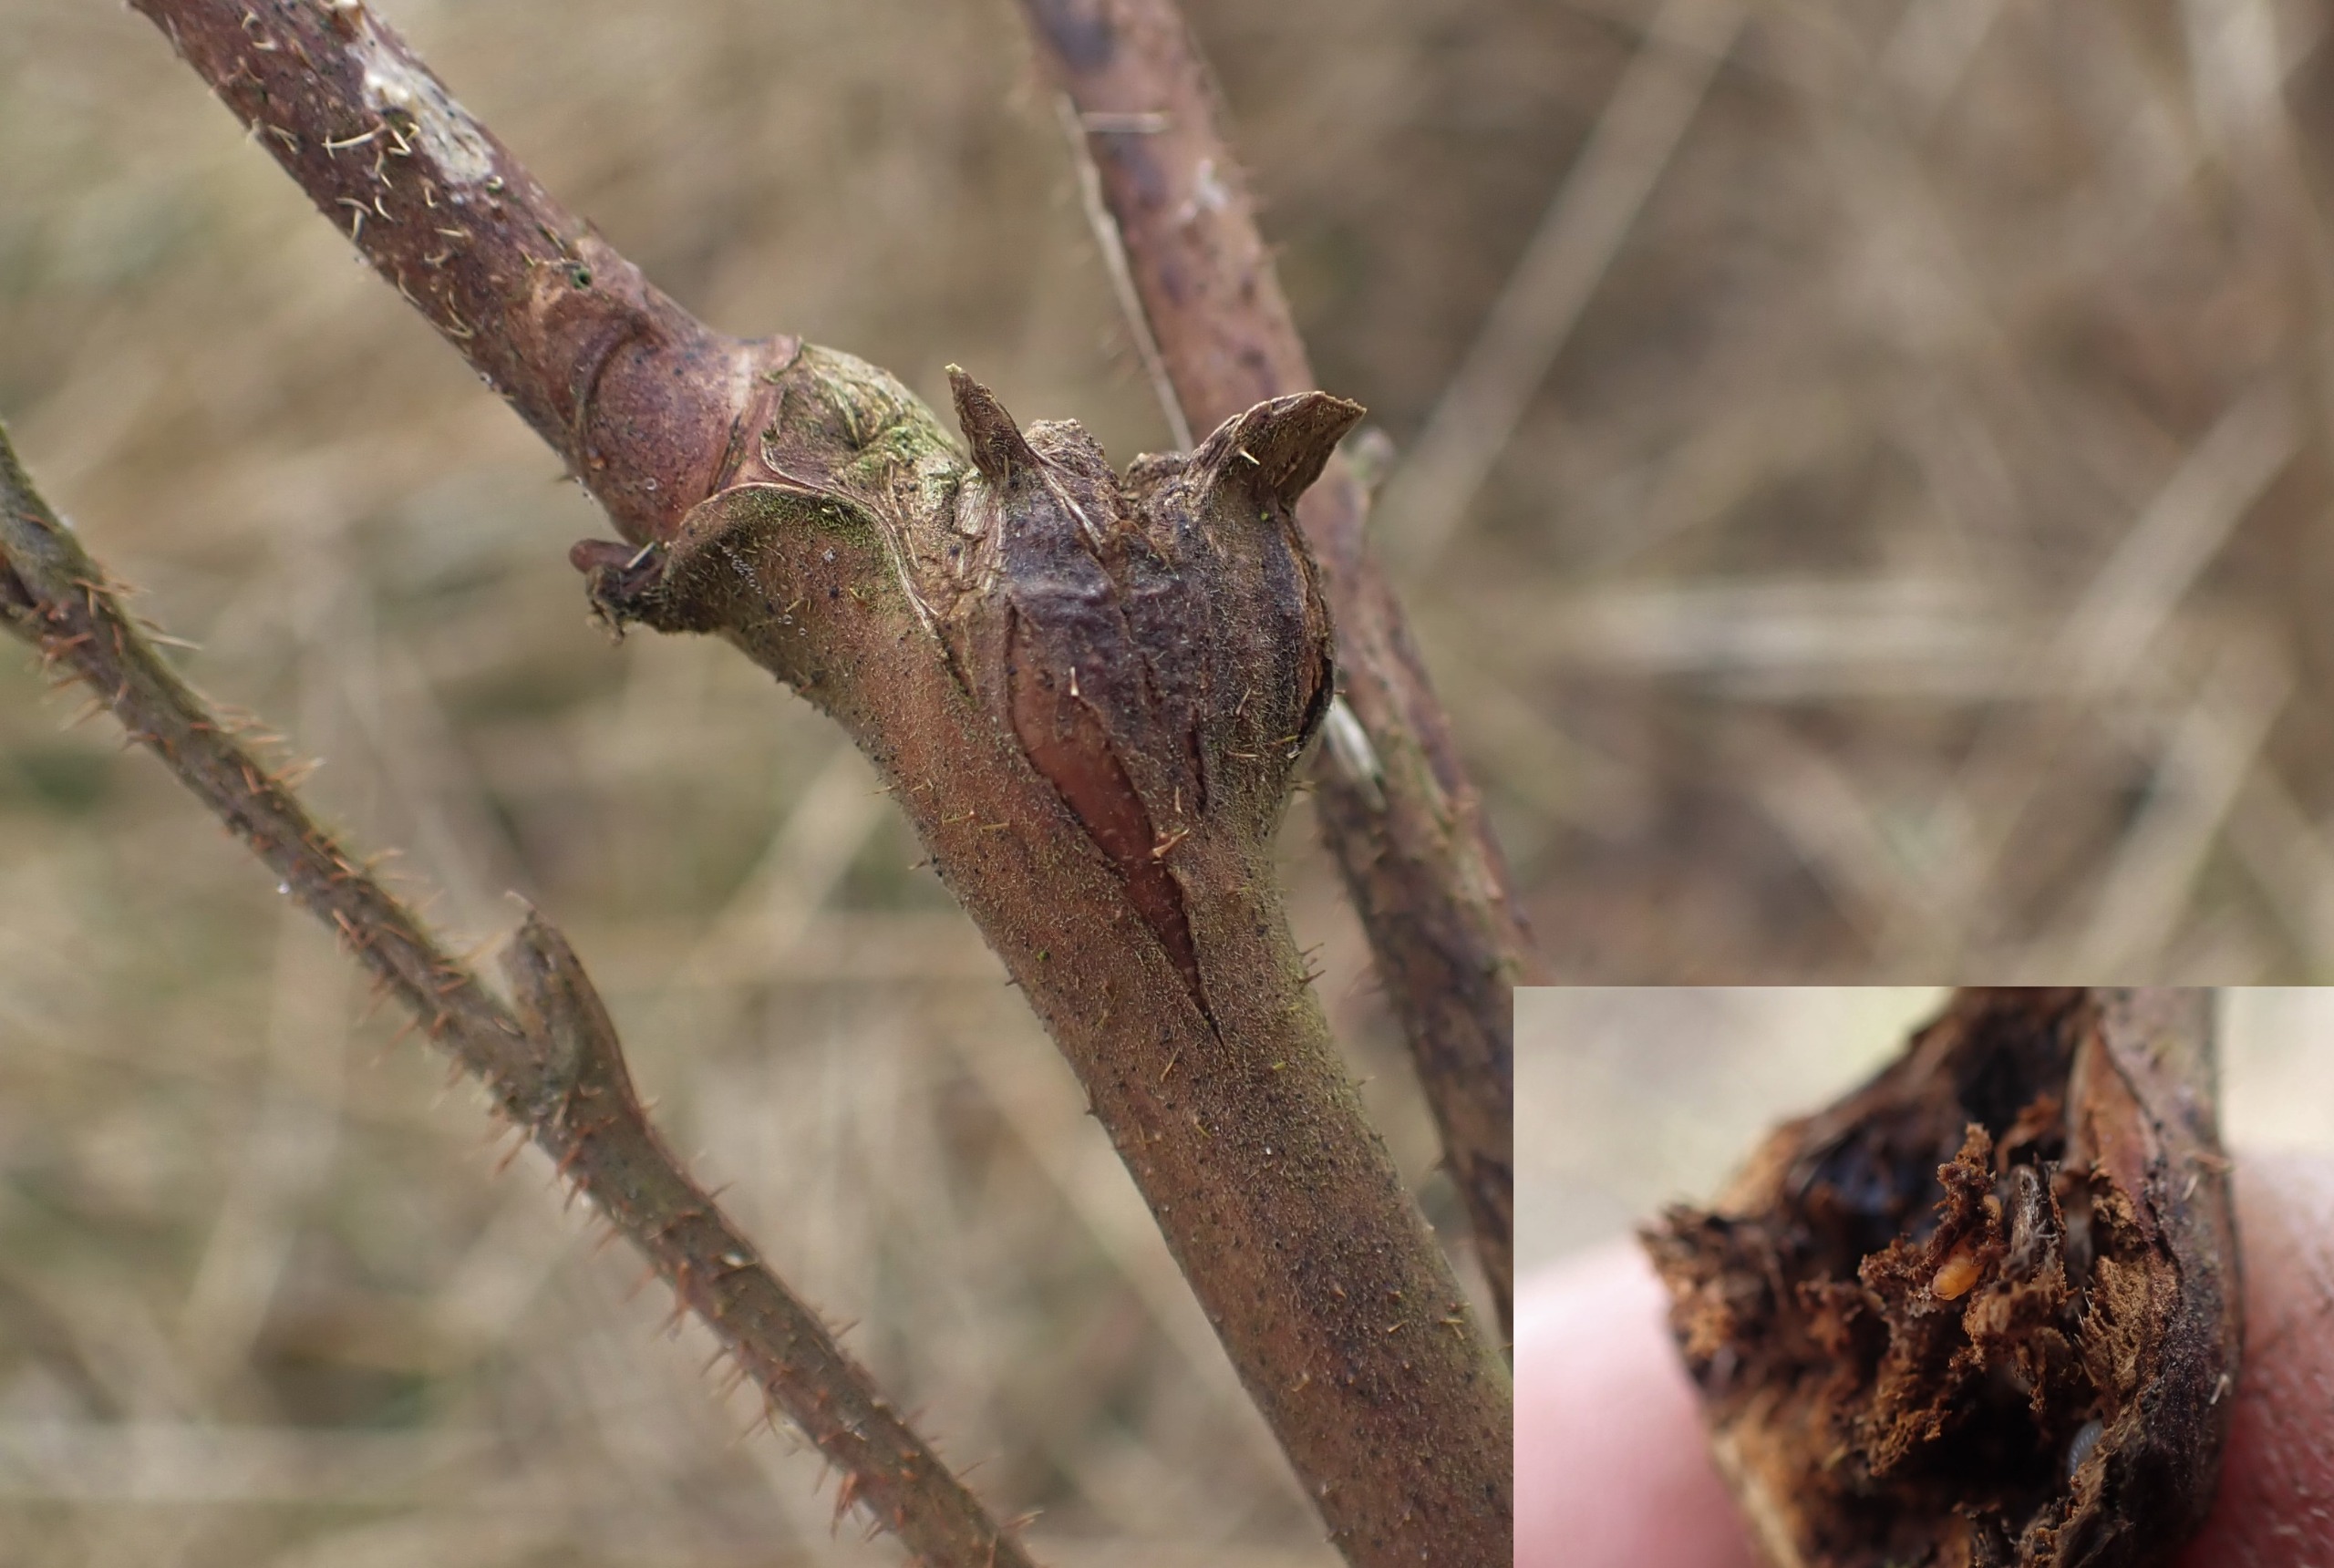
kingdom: Animalia
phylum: Arthropoda
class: Insecta
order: Diptera
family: Cecidomyiidae
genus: Lasioptera
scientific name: Lasioptera rubi
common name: Hindbærstængelgalmyg
